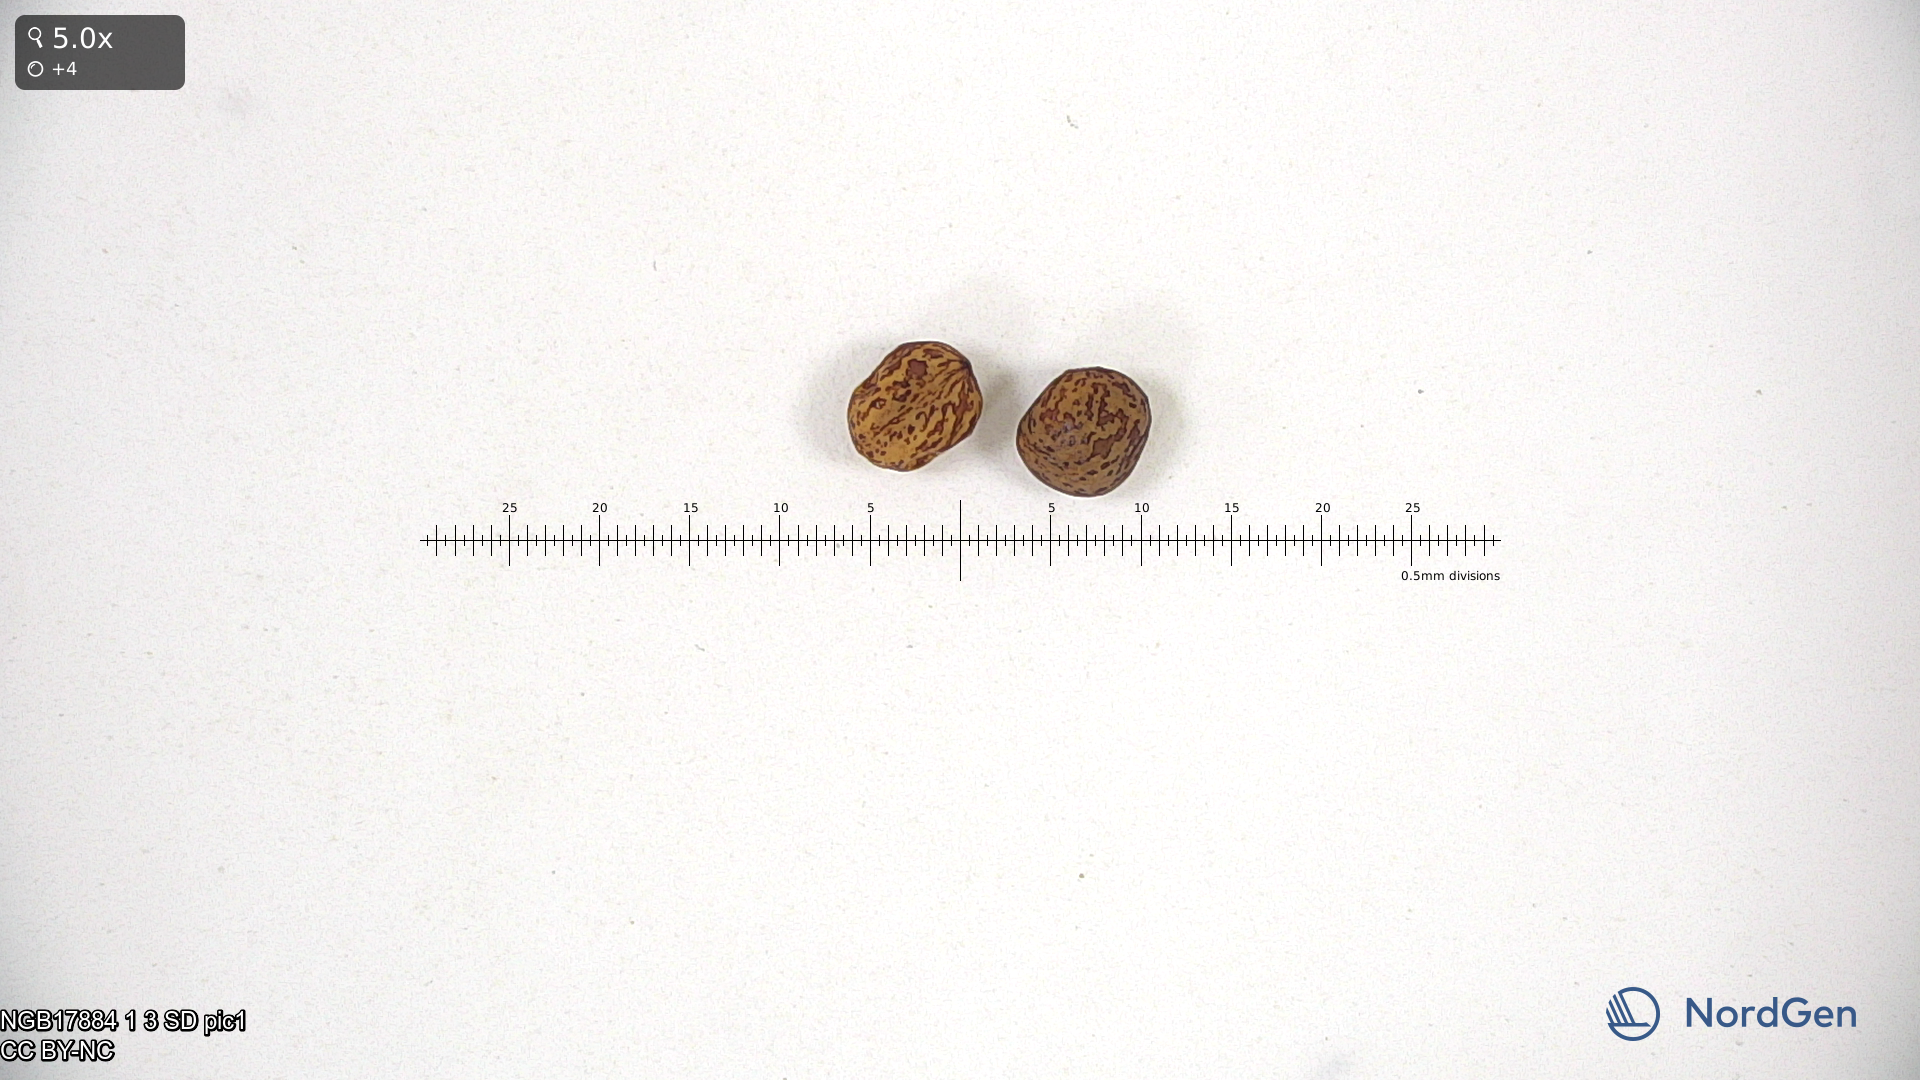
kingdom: Plantae
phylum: Tracheophyta
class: Magnoliopsida
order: Fabales
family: Fabaceae
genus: Lathyrus
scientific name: Lathyrus oleraceus
